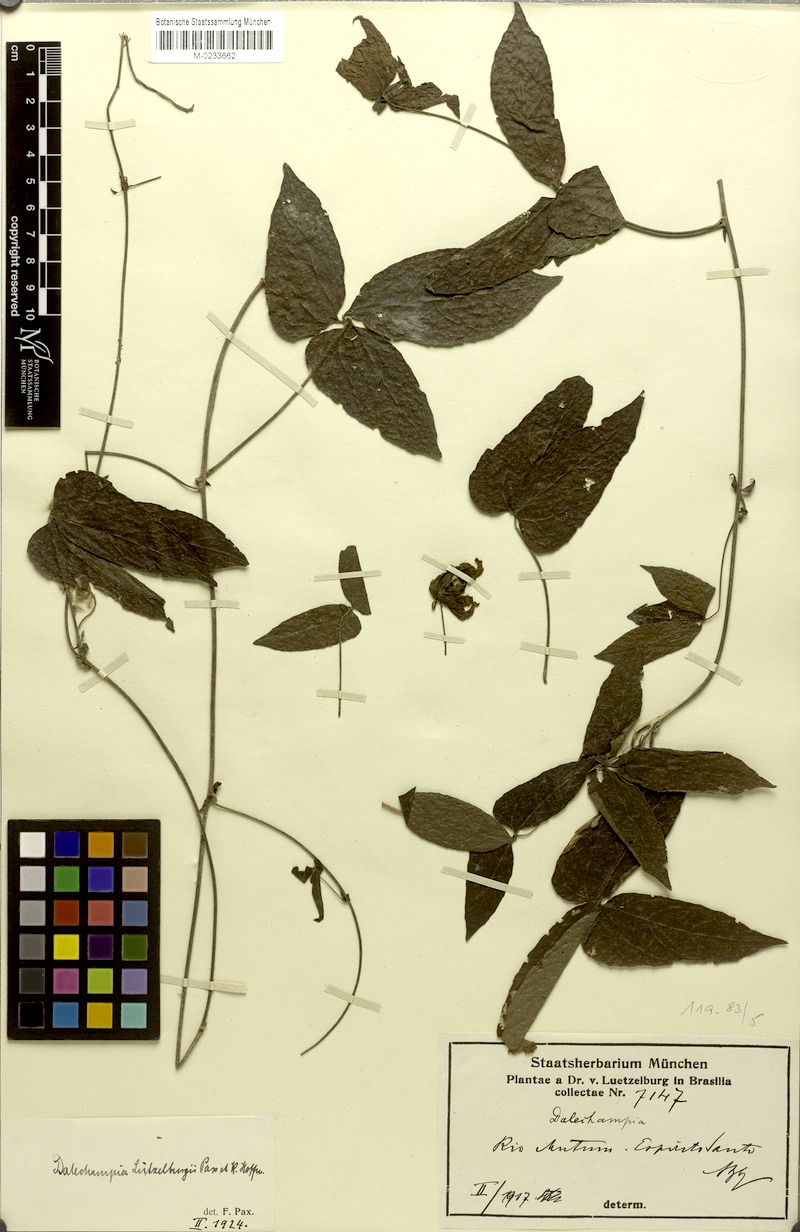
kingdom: Plantae
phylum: Tracheophyta
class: Magnoliopsida
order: Malpighiales
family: Euphorbiaceae
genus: Dalechampia
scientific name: Dalechampia luetzelburgii
